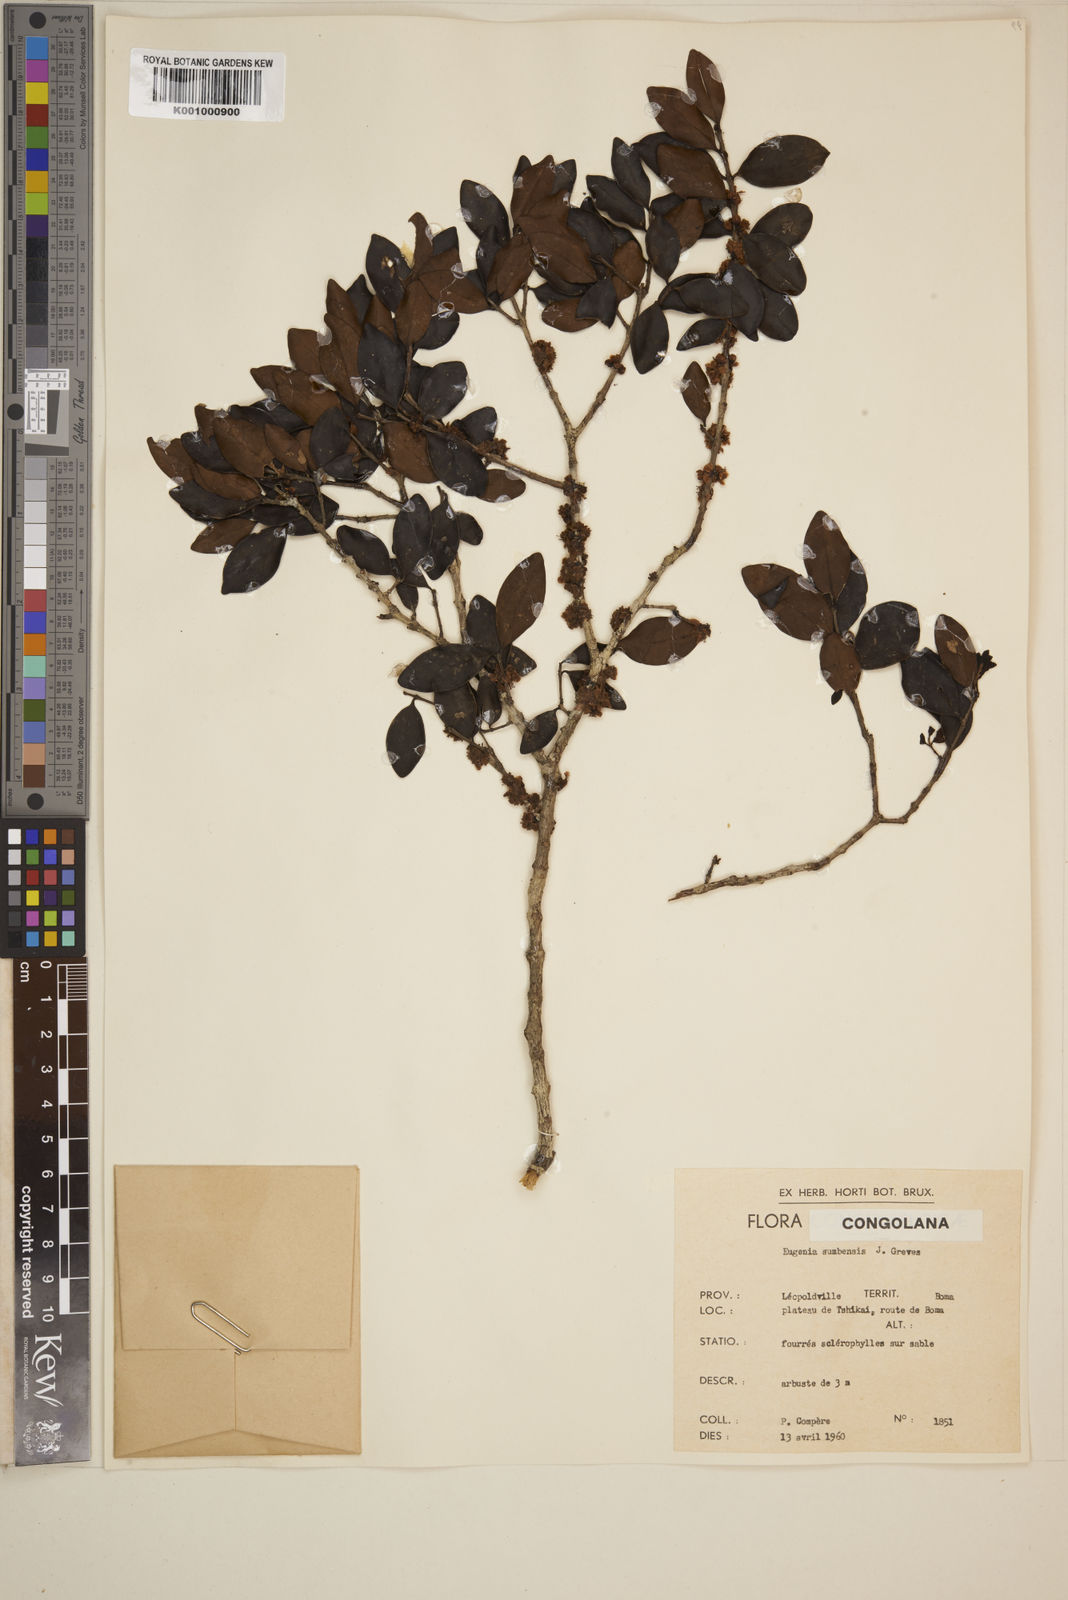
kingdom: Plantae
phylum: Tracheophyta
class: Magnoliopsida
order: Myrtales
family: Myrtaceae
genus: Eugenia
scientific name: Eugenia sumbensis
